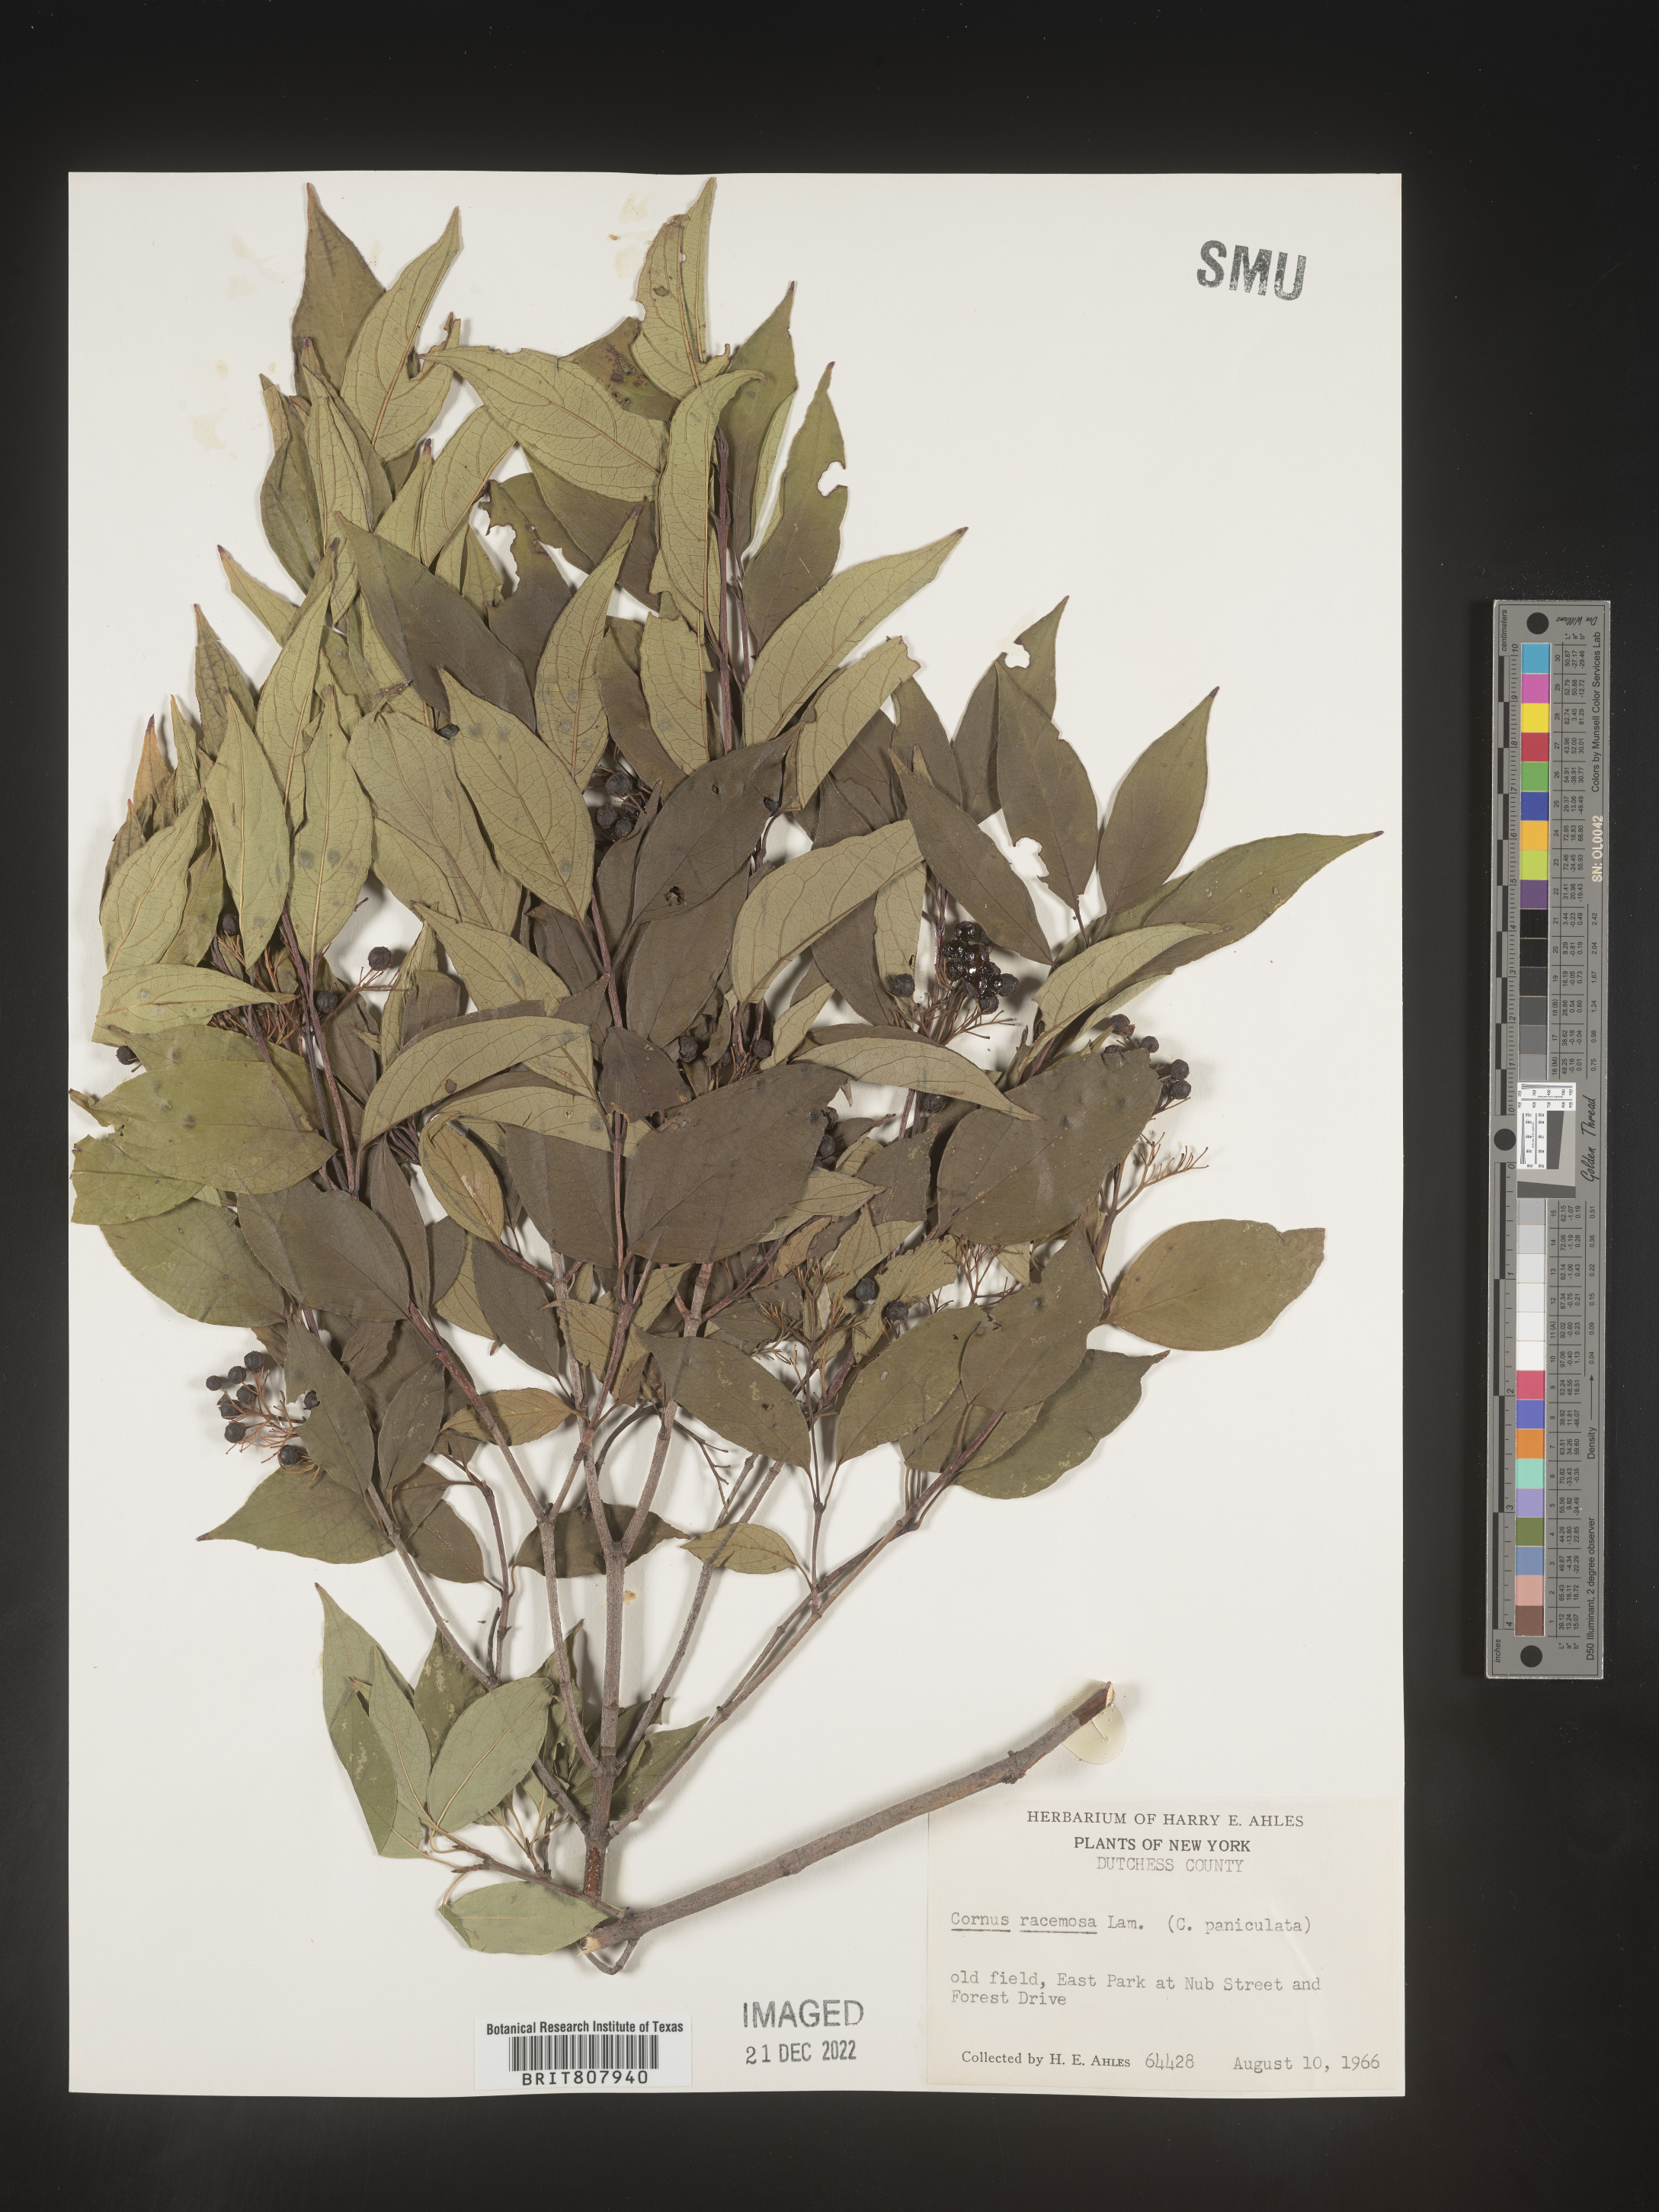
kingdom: Plantae
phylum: Tracheophyta
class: Magnoliopsida
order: Cornales
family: Cornaceae
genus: Cornus
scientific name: Cornus racemosa
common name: Panicled dogwood
